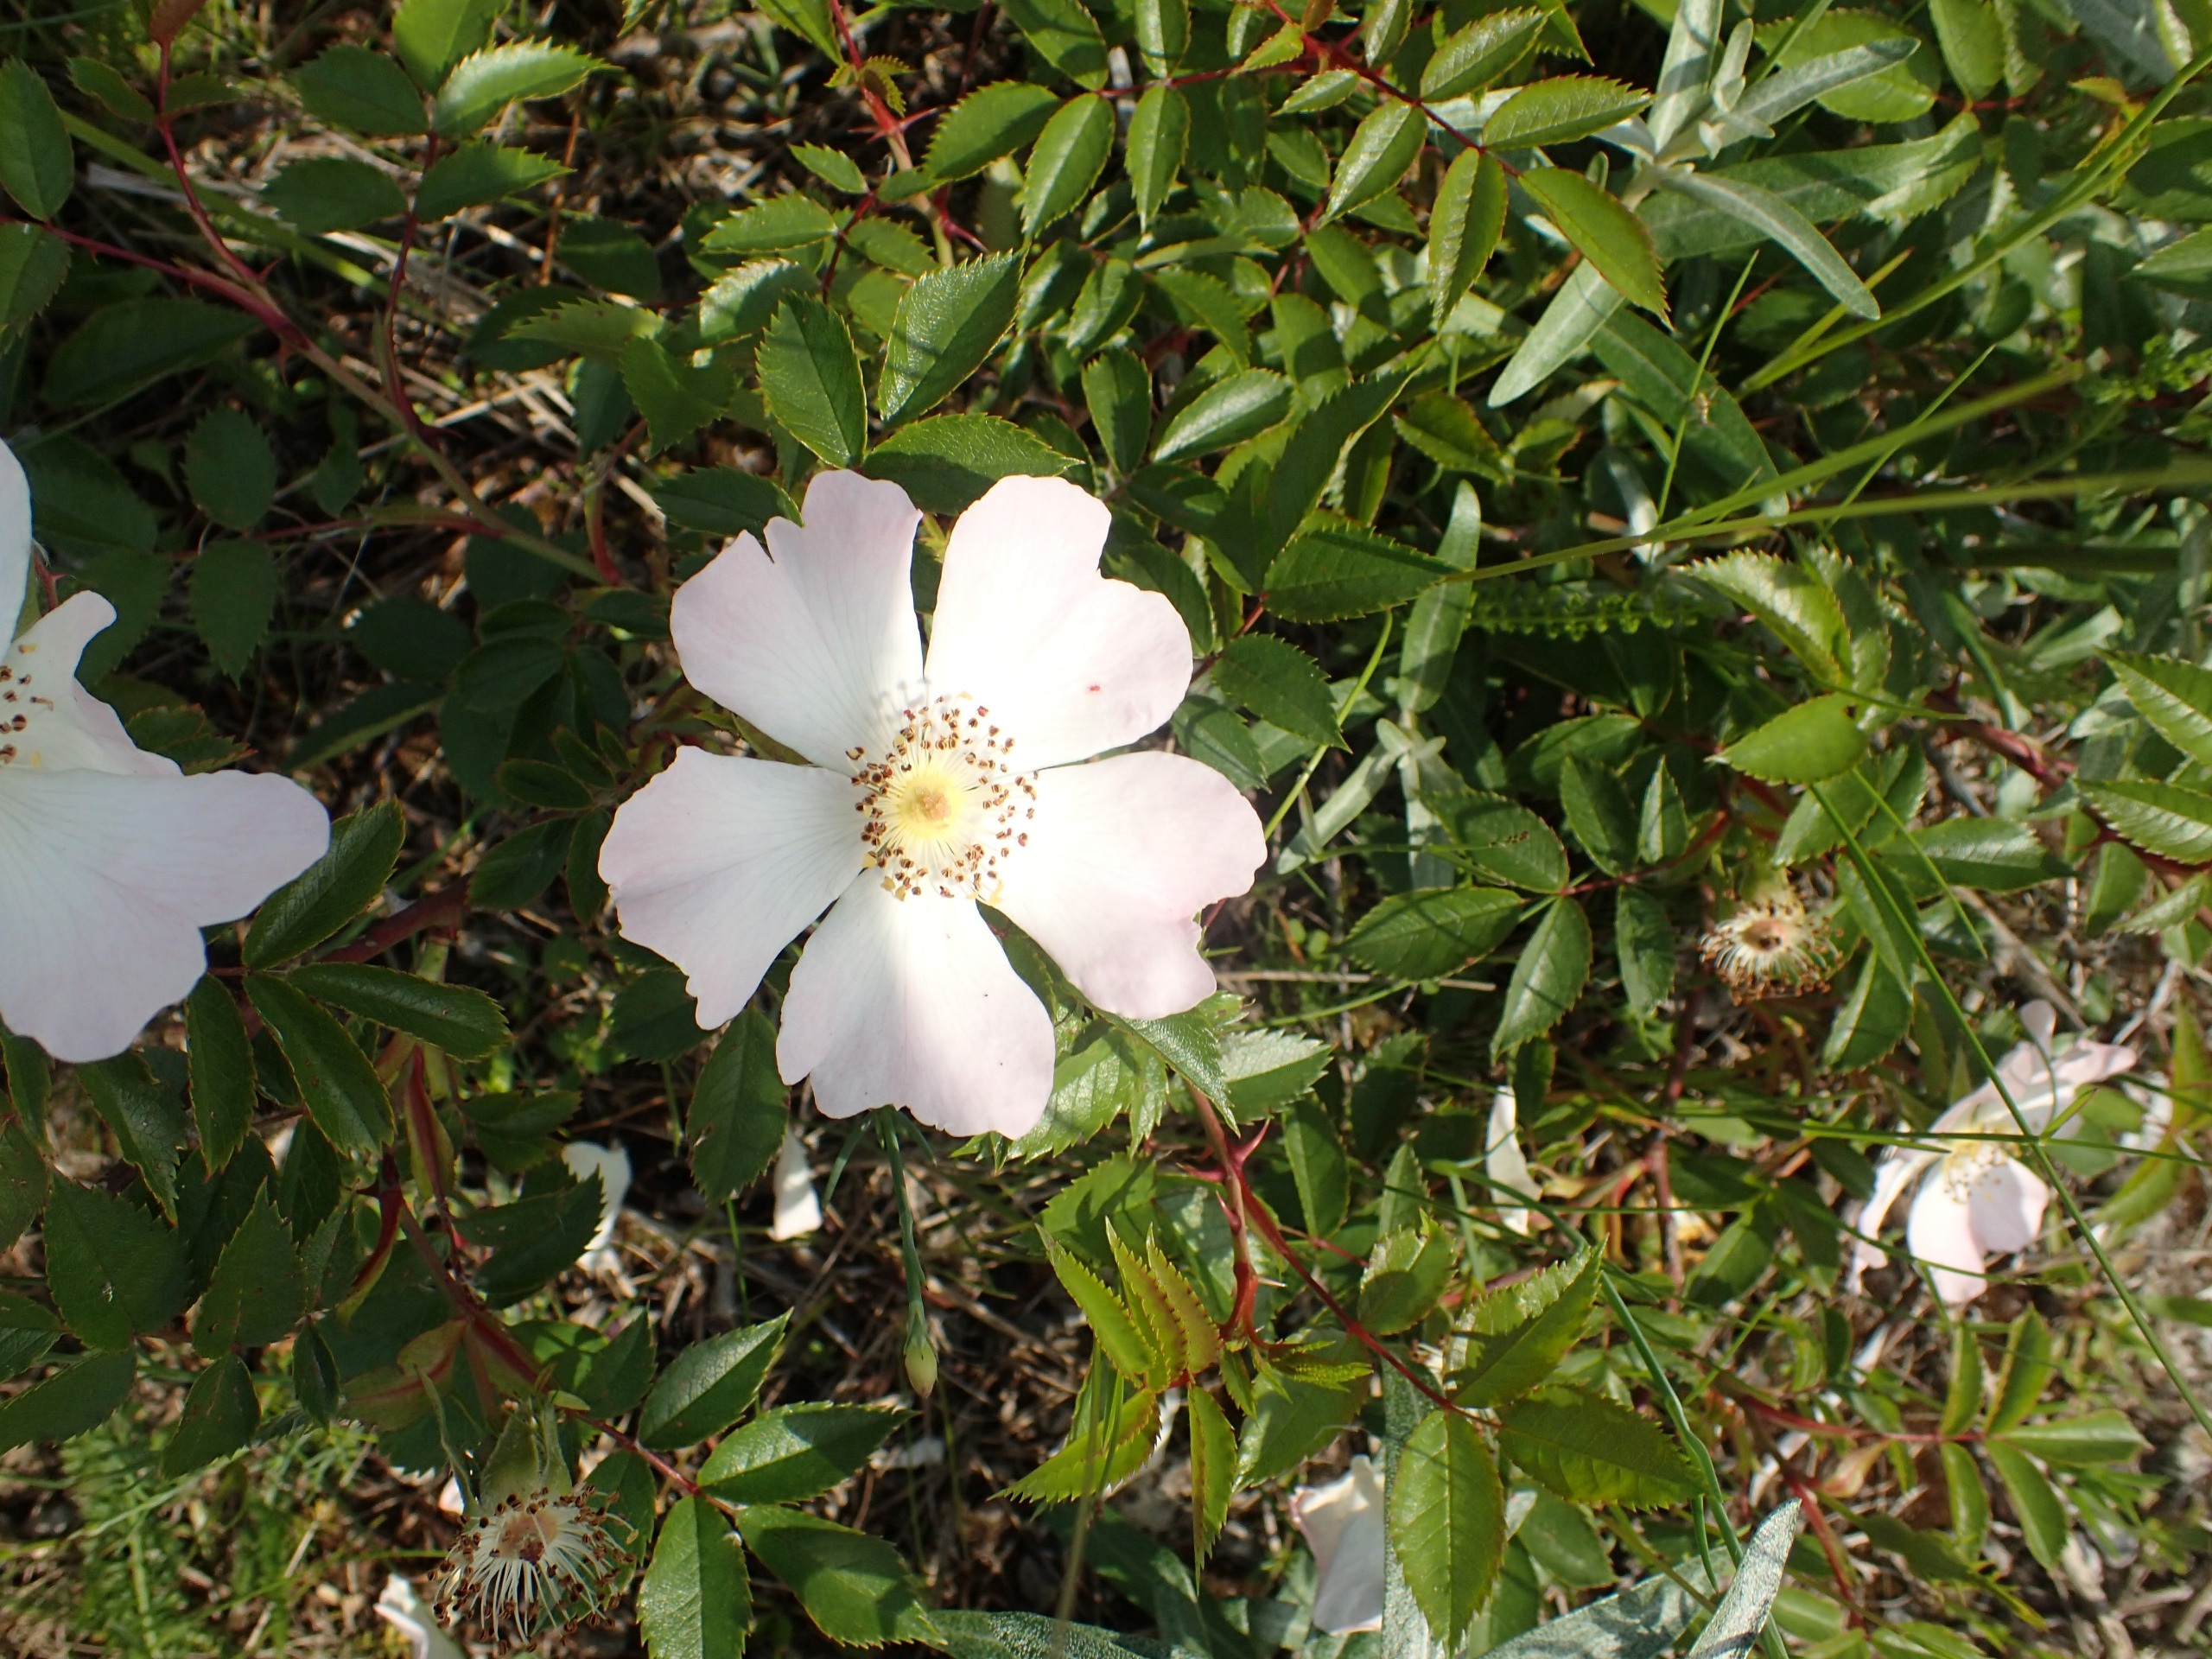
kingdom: Plantae
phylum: Tracheophyta
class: Magnoliopsida
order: Rosales
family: Rosaceae
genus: Rosa
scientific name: Rosa carolina
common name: Glansbladet rose
